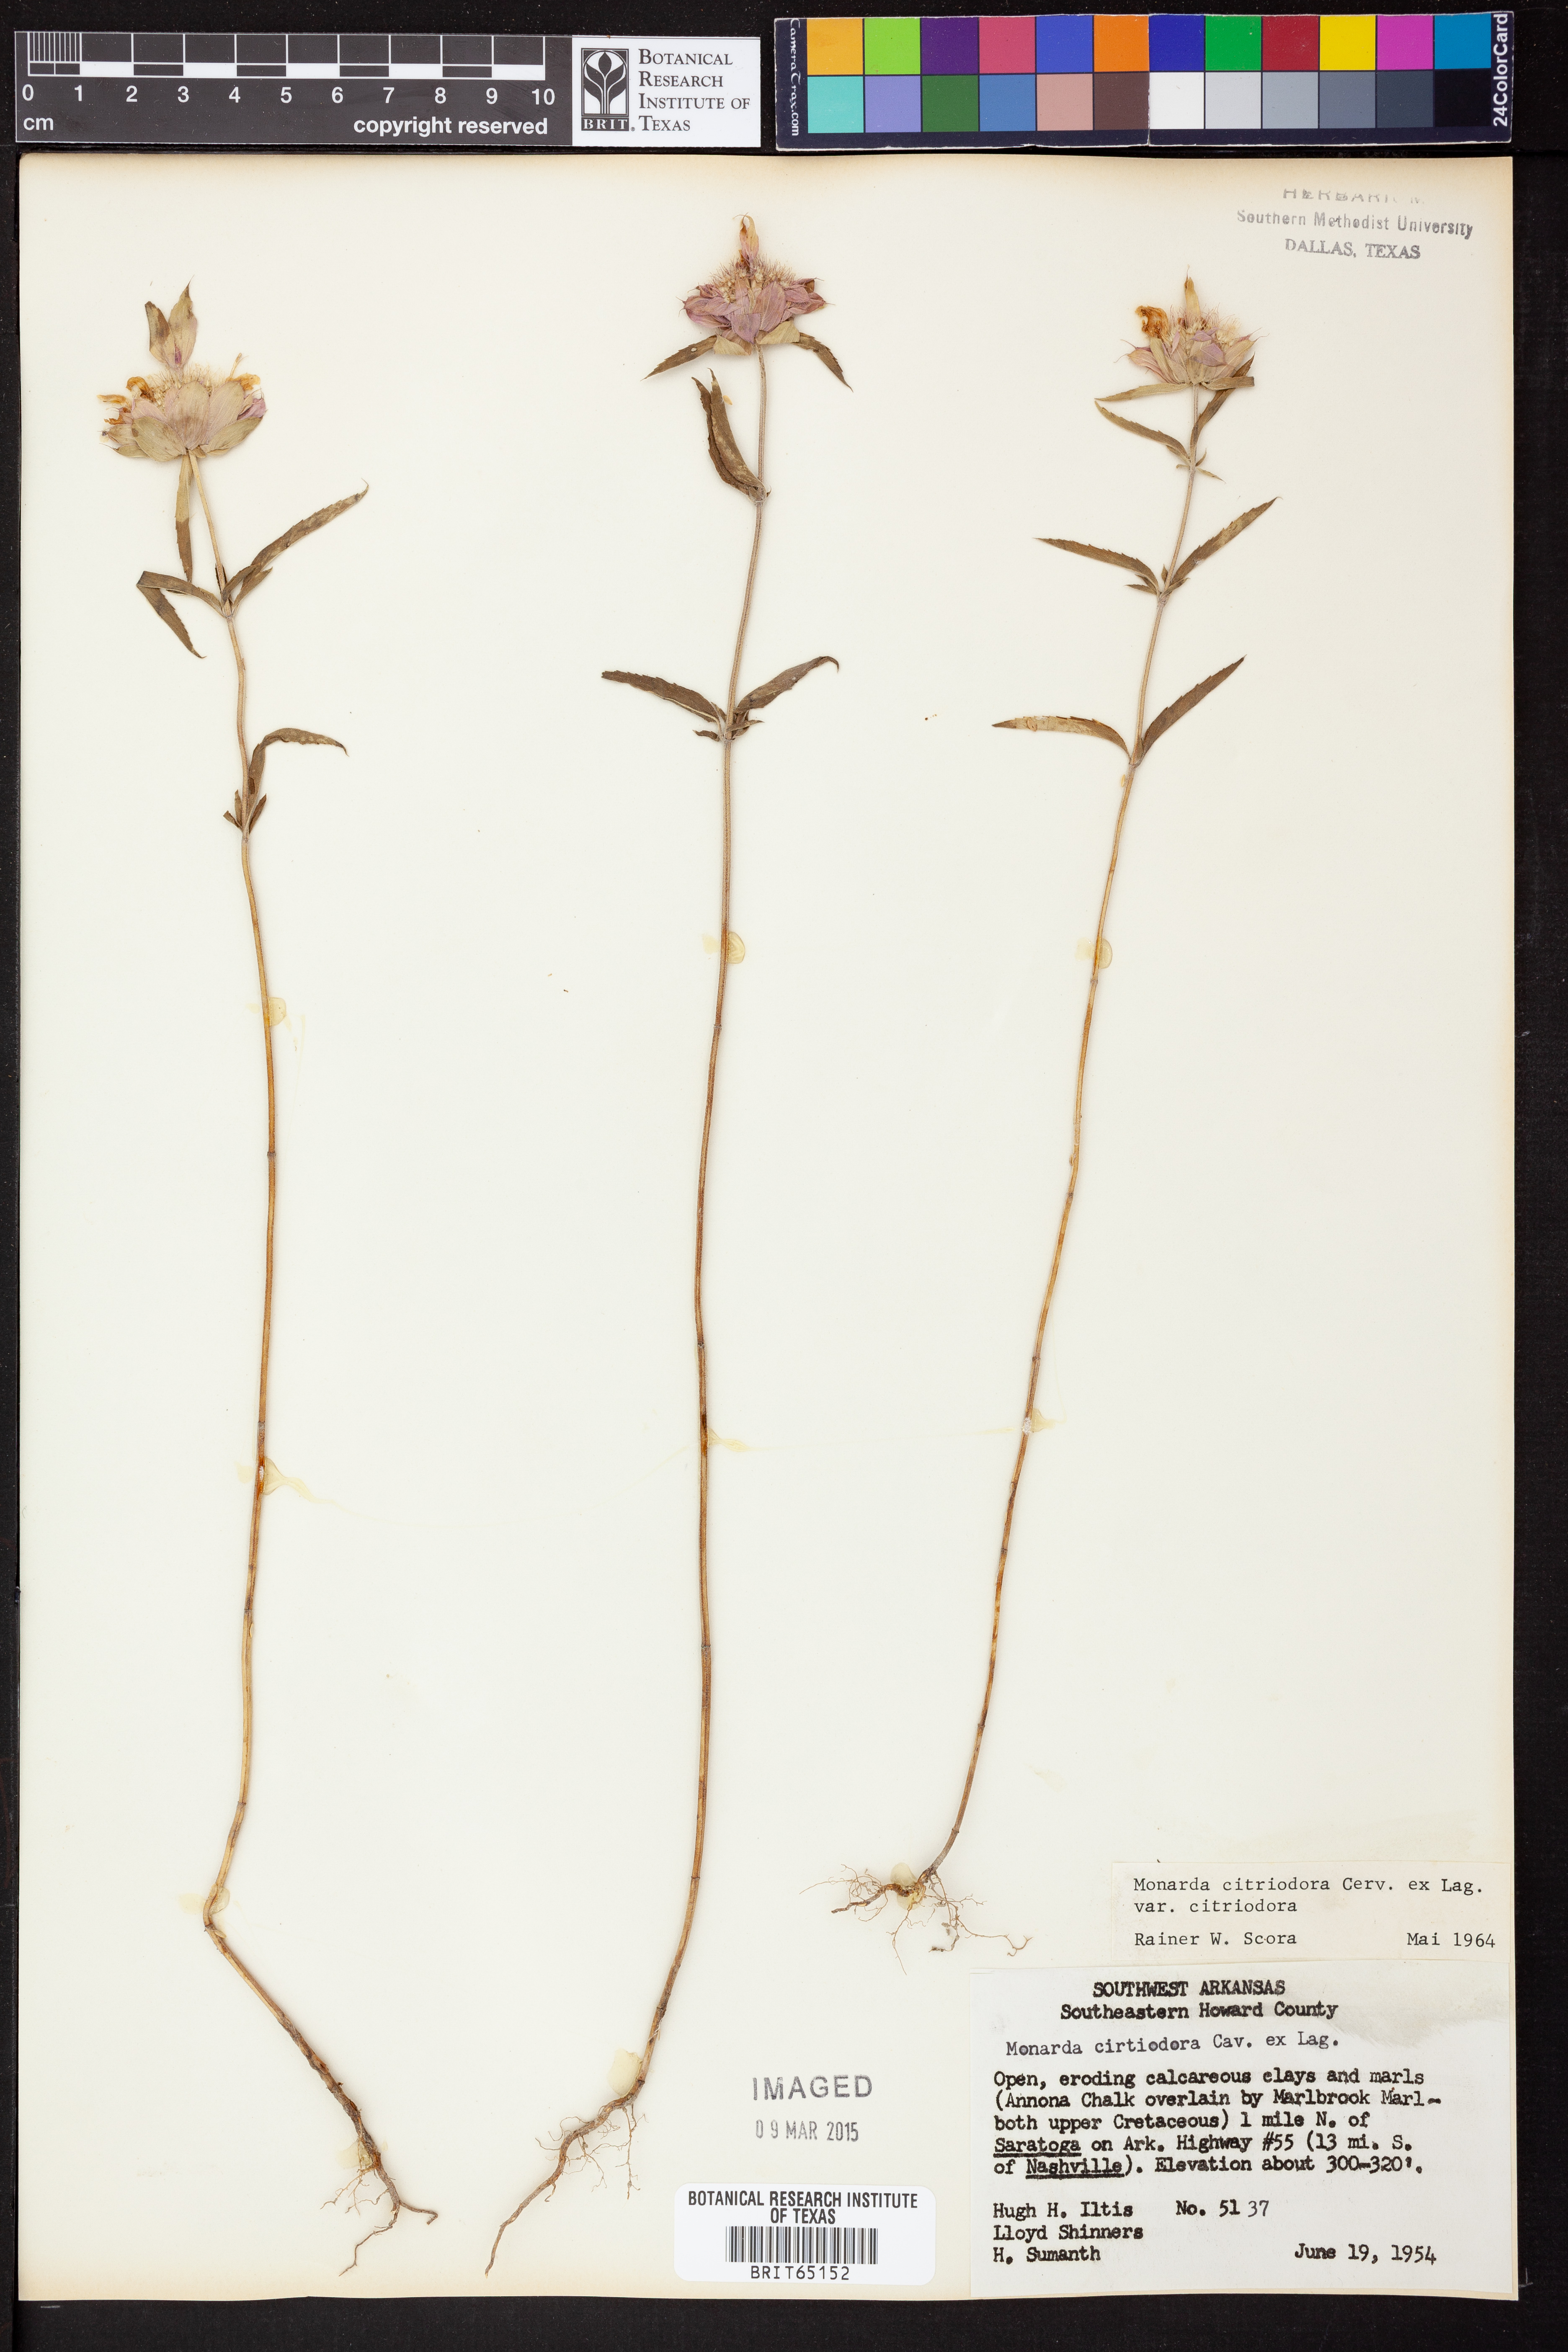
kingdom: Plantae
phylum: Tracheophyta
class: Magnoliopsida
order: Lamiales
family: Lamiaceae
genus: Monarda
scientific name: Monarda citriodora
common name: Lemon beebalm
